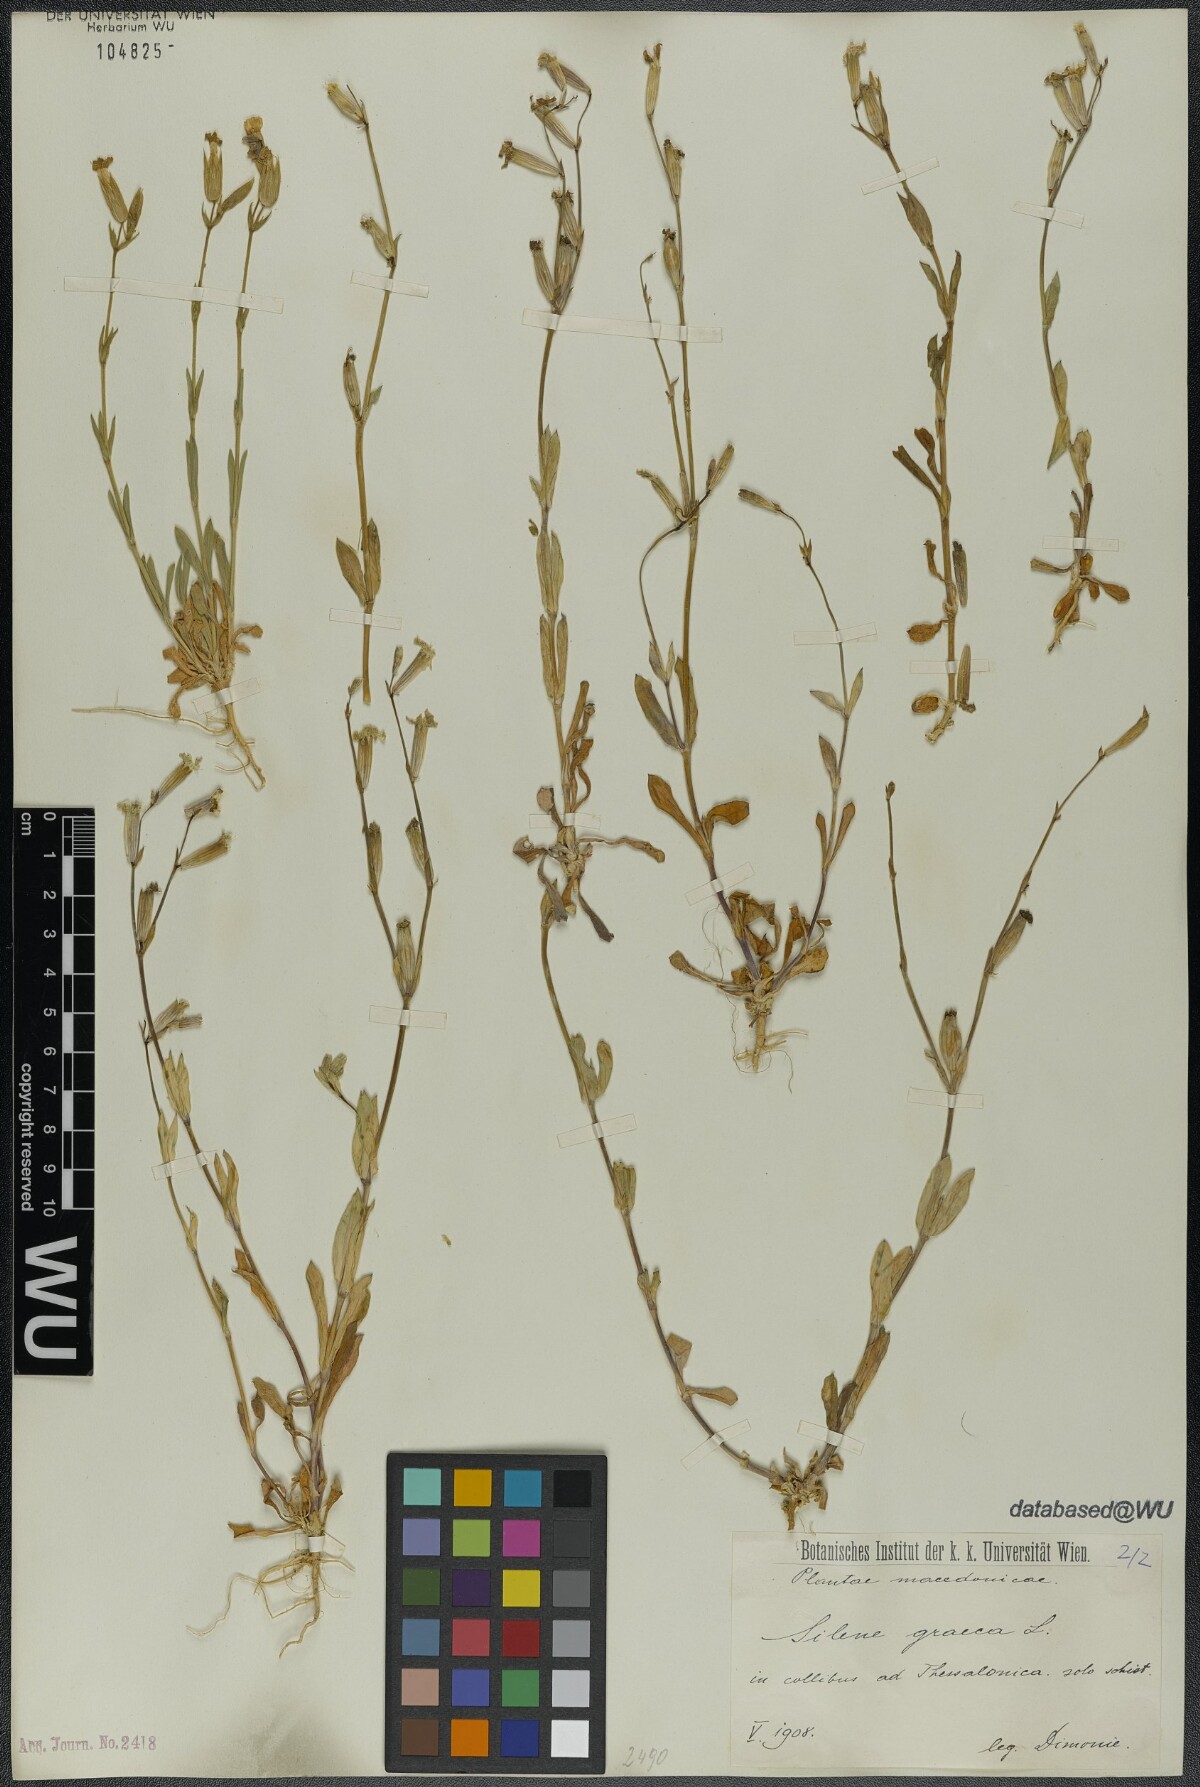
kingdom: Plantae
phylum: Tracheophyta
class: Magnoliopsida
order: Caryophyllales
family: Caryophyllaceae
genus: Silene
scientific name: Silene graeca
